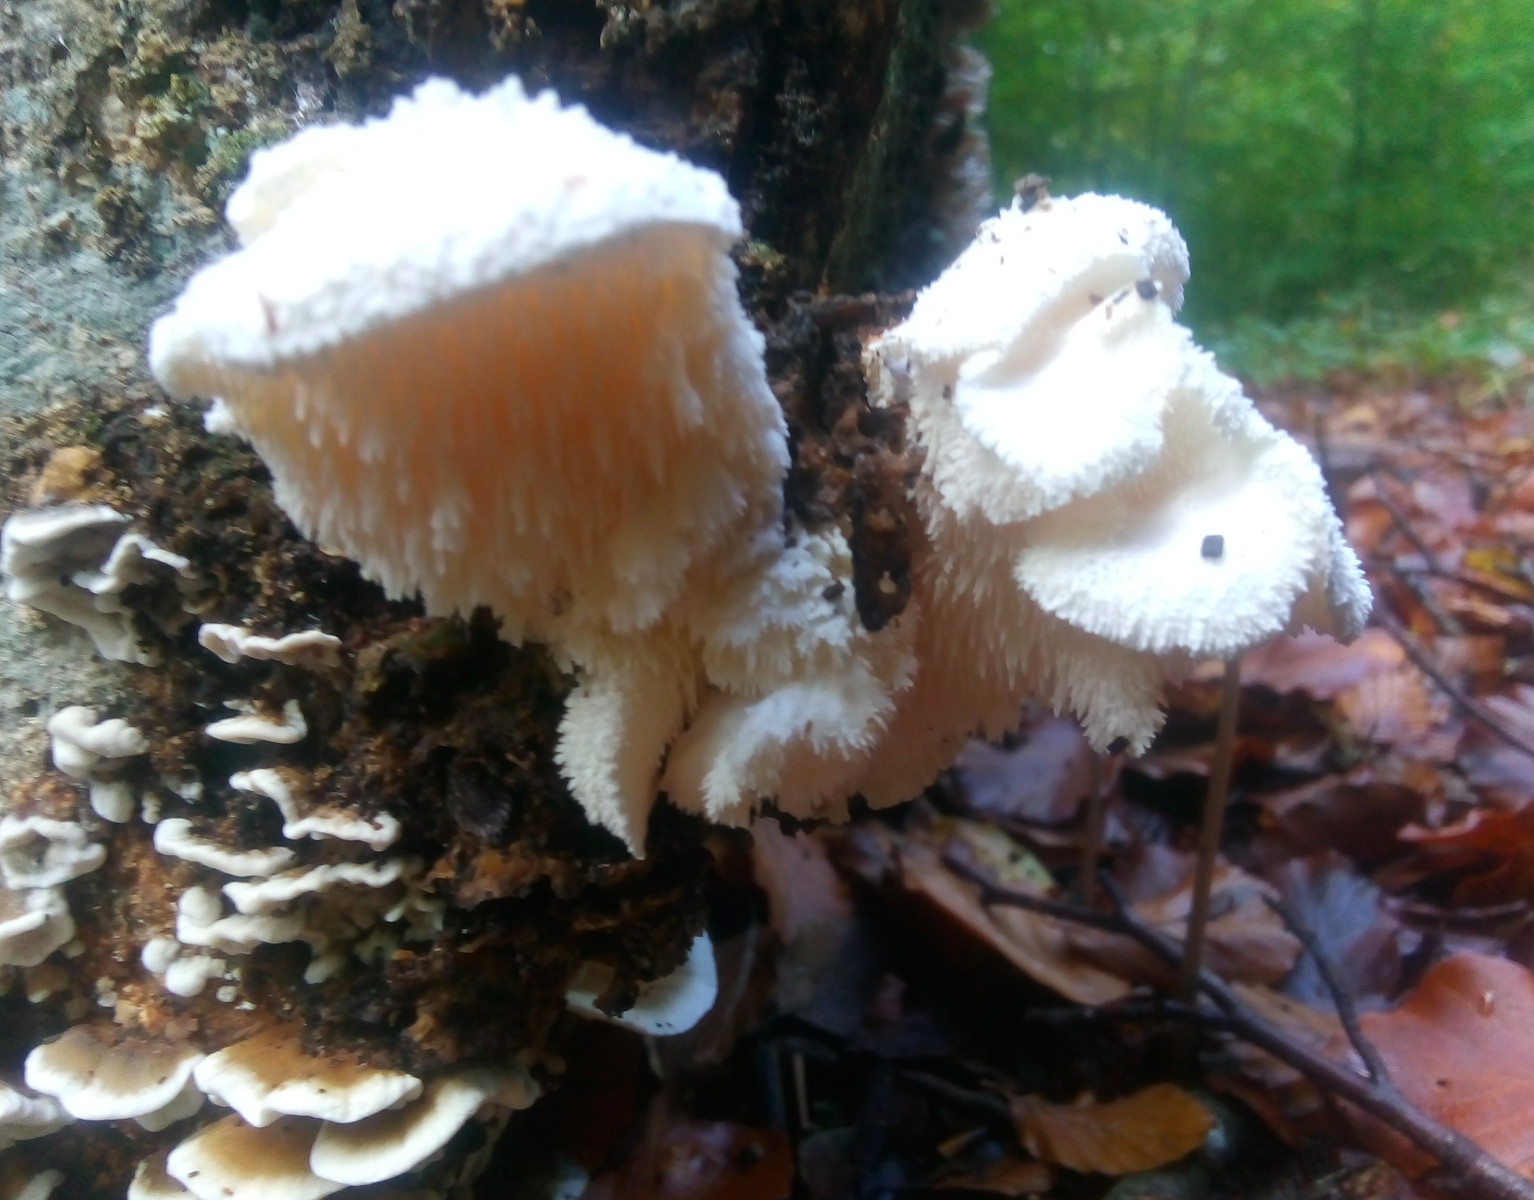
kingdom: Fungi
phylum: Basidiomycota
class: Agaricomycetes
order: Russulales
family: Hericiaceae
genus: Hericium
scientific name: Hericium cirrhatum
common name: børstepigsvamp
